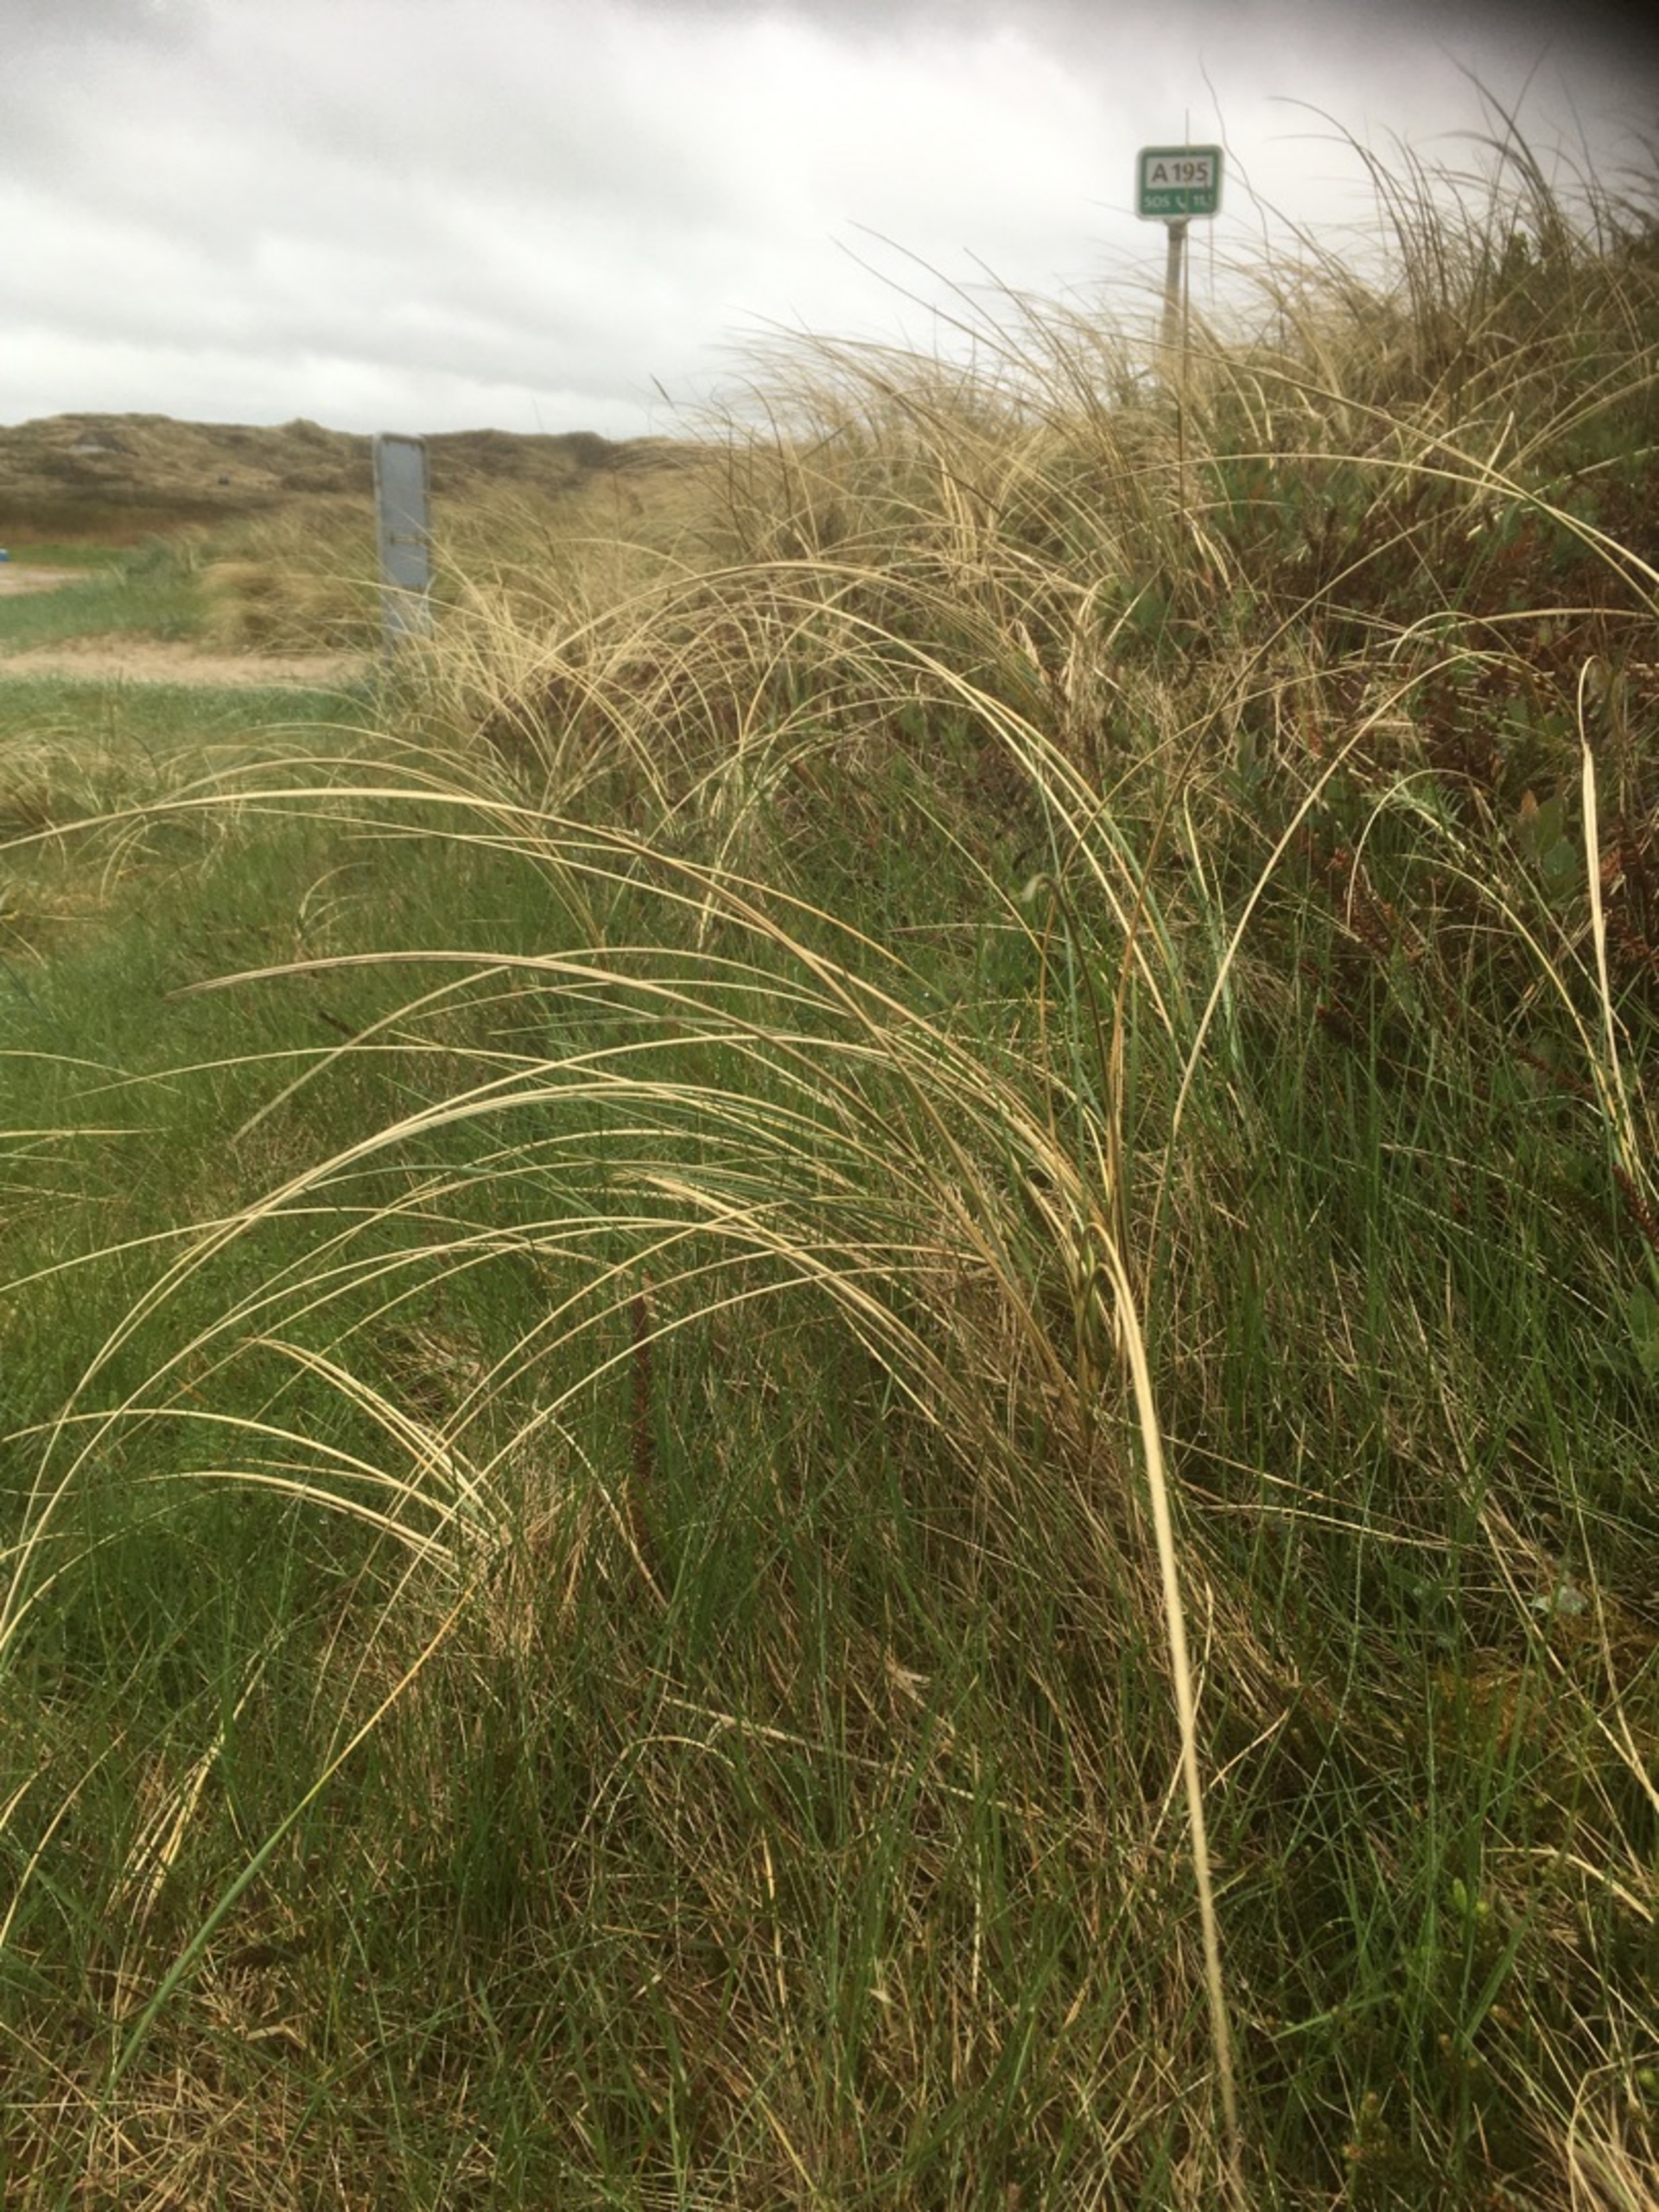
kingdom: Plantae
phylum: Tracheophyta
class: Liliopsida
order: Poales
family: Poaceae
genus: Calamagrostis
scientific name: Calamagrostis arenaria
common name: Sand-hjælme
